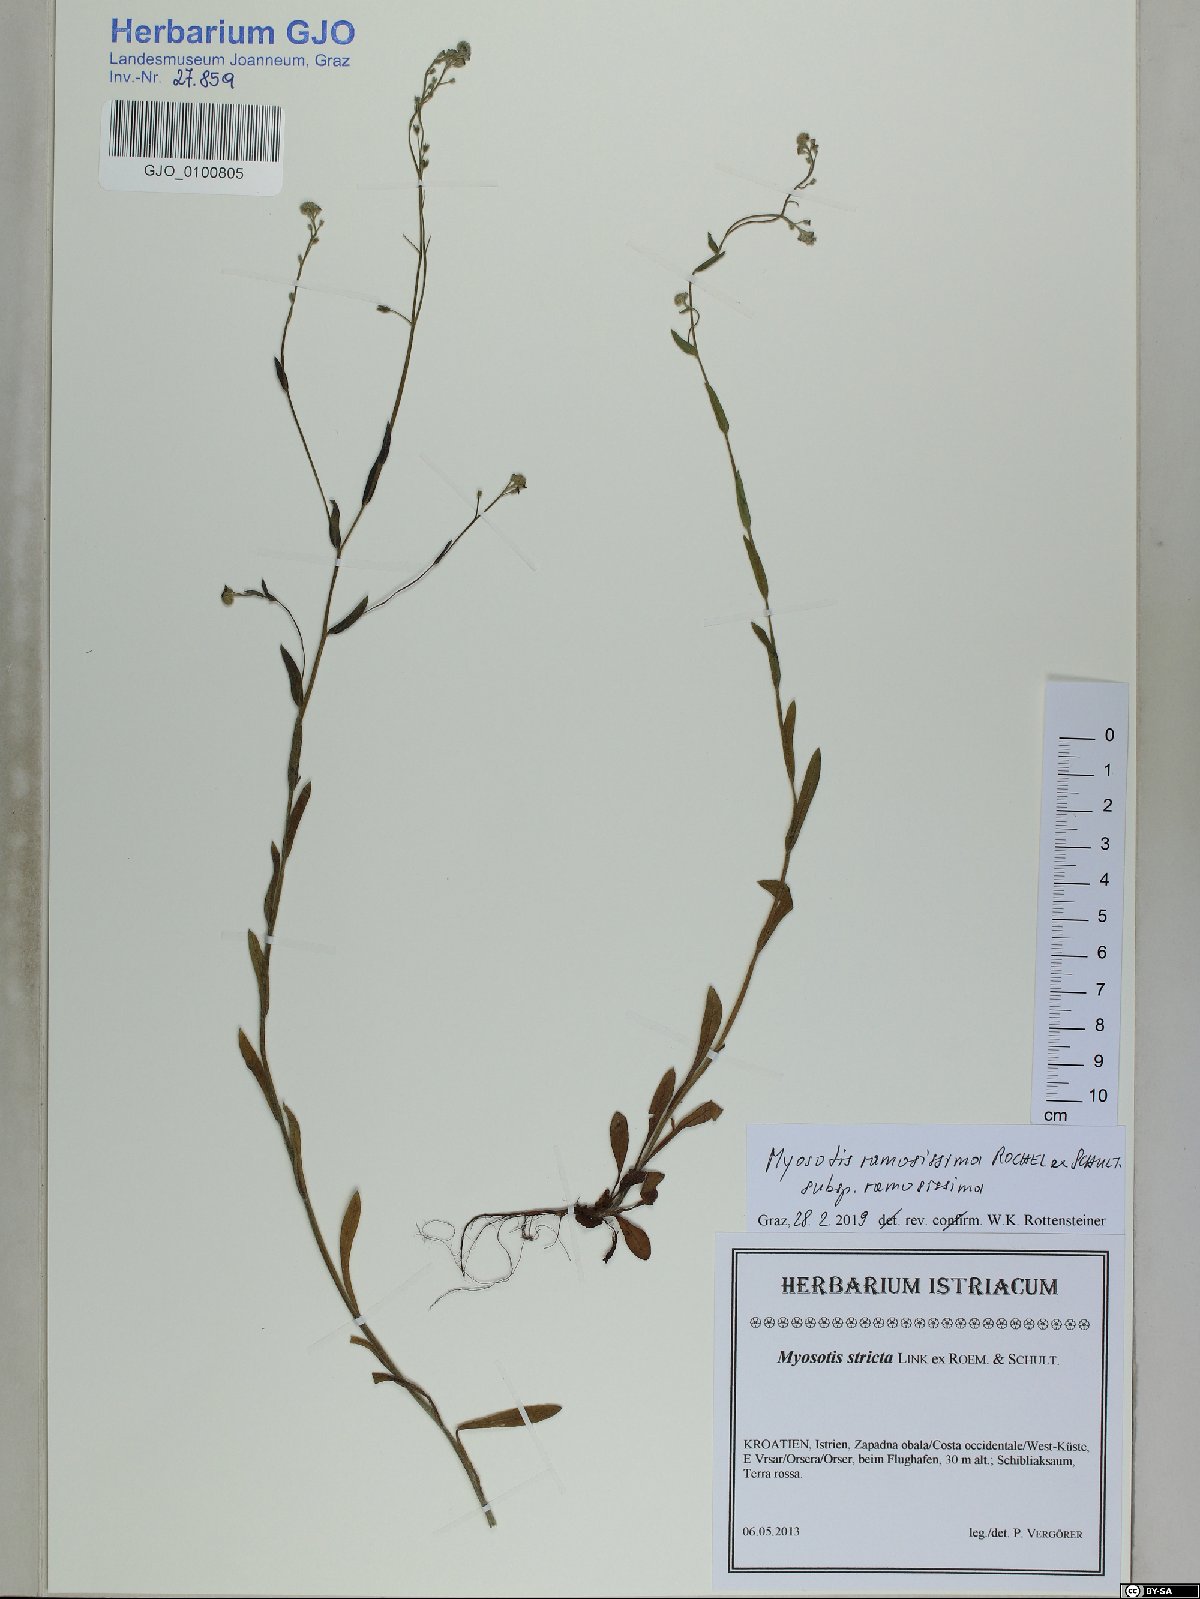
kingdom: Plantae
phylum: Tracheophyta
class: Magnoliopsida
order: Boraginales
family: Boraginaceae
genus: Myosotis
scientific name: Myosotis ramosissima
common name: Early forget-me-not
